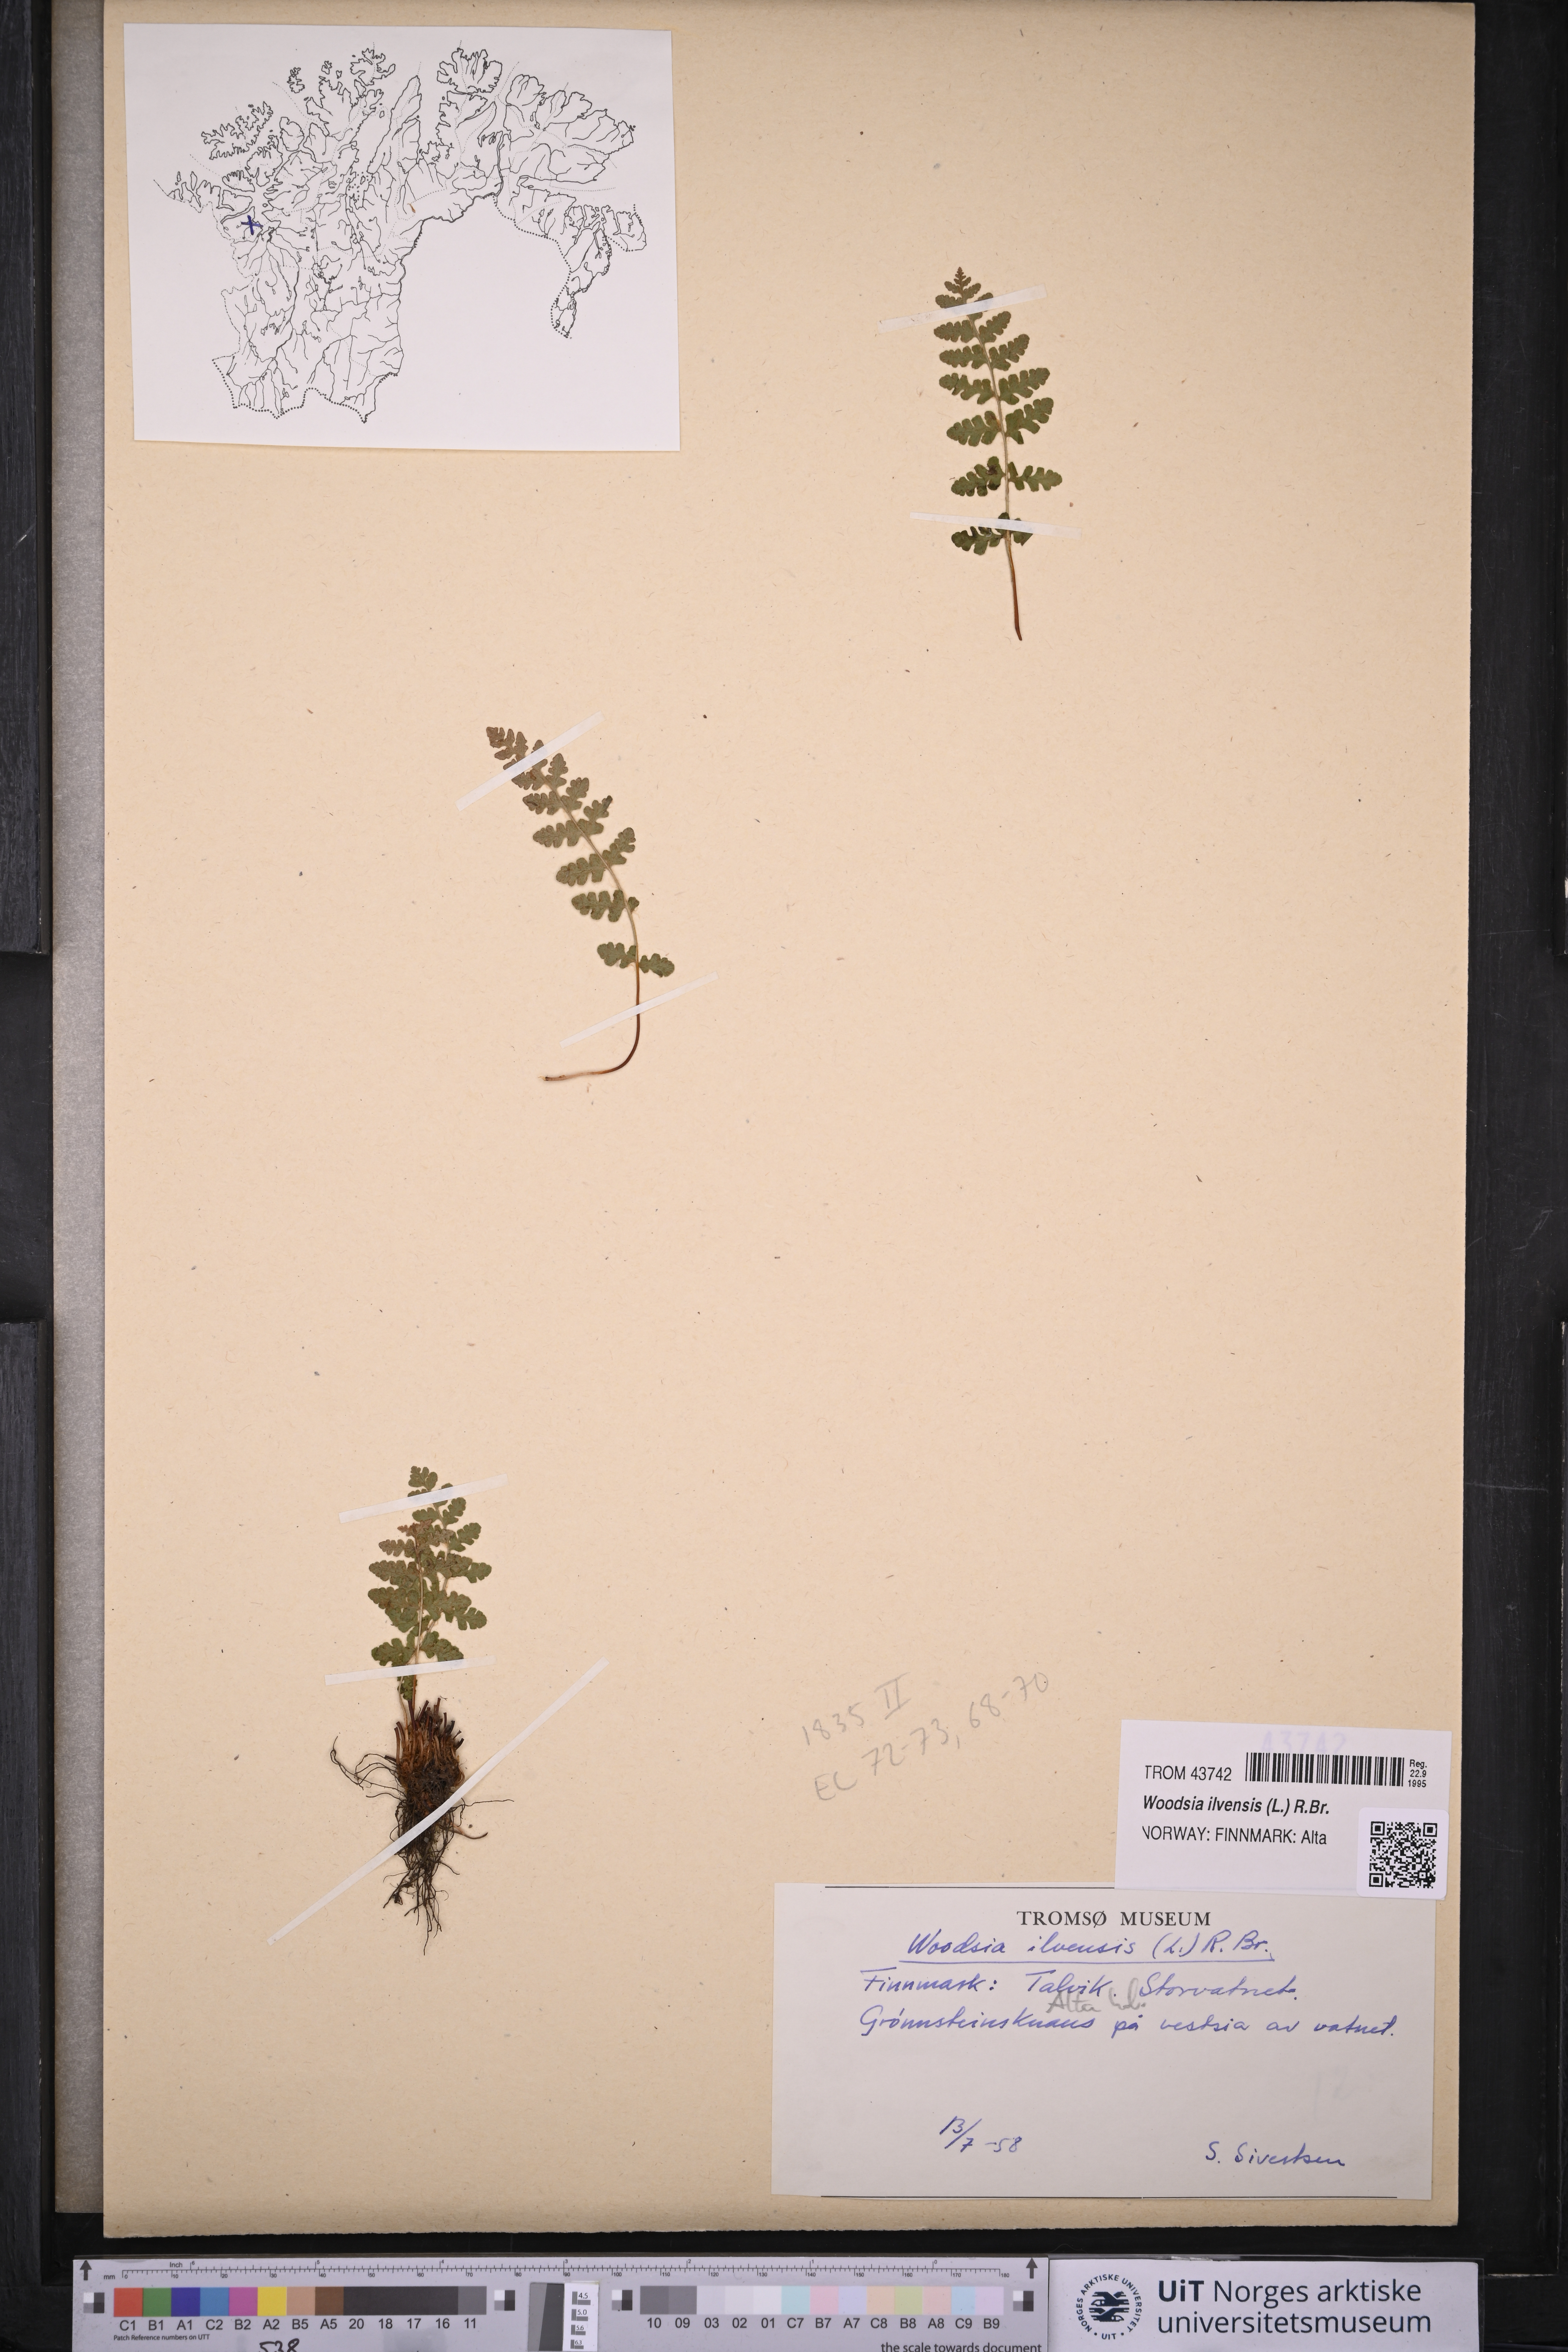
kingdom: Plantae
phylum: Tracheophyta
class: Polypodiopsida
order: Polypodiales
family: Woodsiaceae
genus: Woodsia
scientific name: Woodsia ilvensis
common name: Fragrant woodsia
